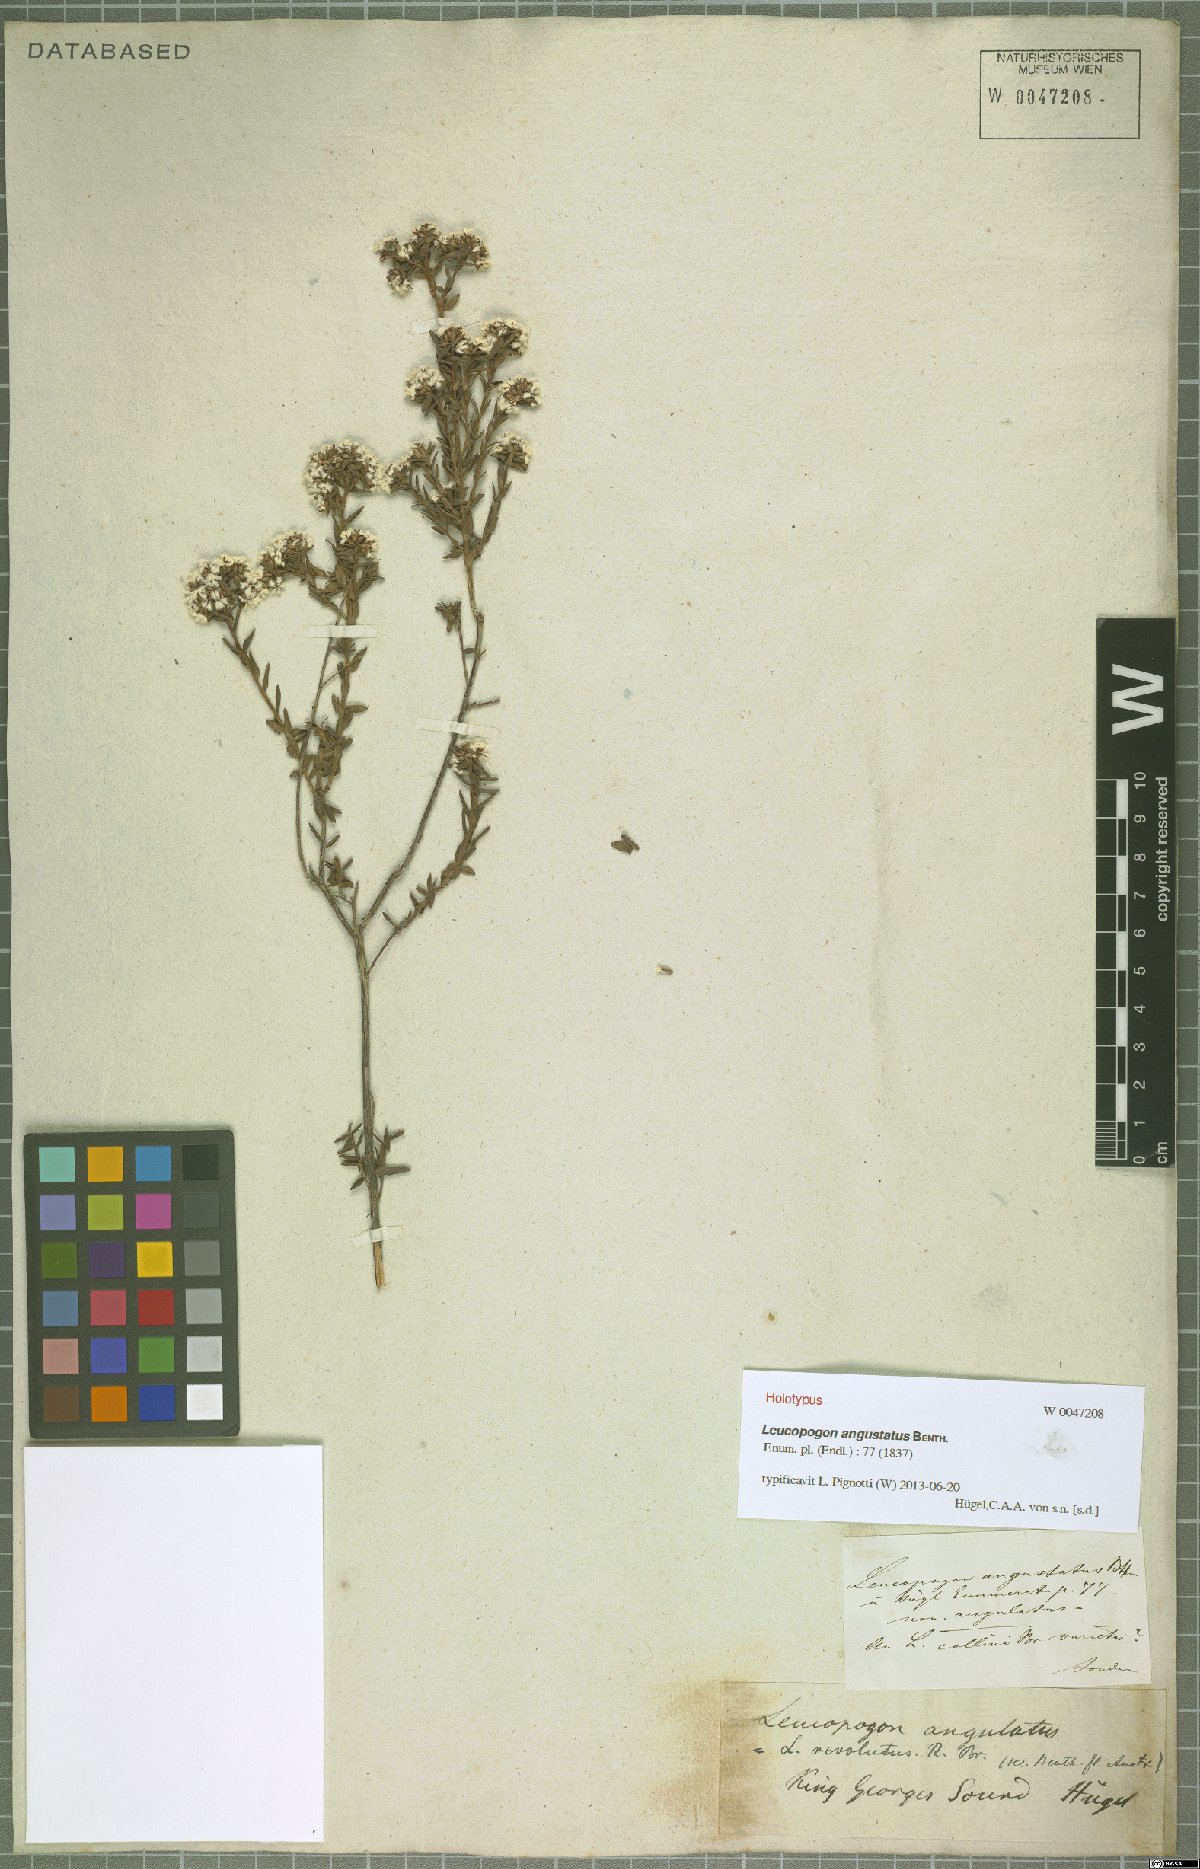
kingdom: Plantae
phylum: Tracheophyta
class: Magnoliopsida
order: Ericales
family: Ericaceae
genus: Leucopogon
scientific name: Leucopogon obovatus
